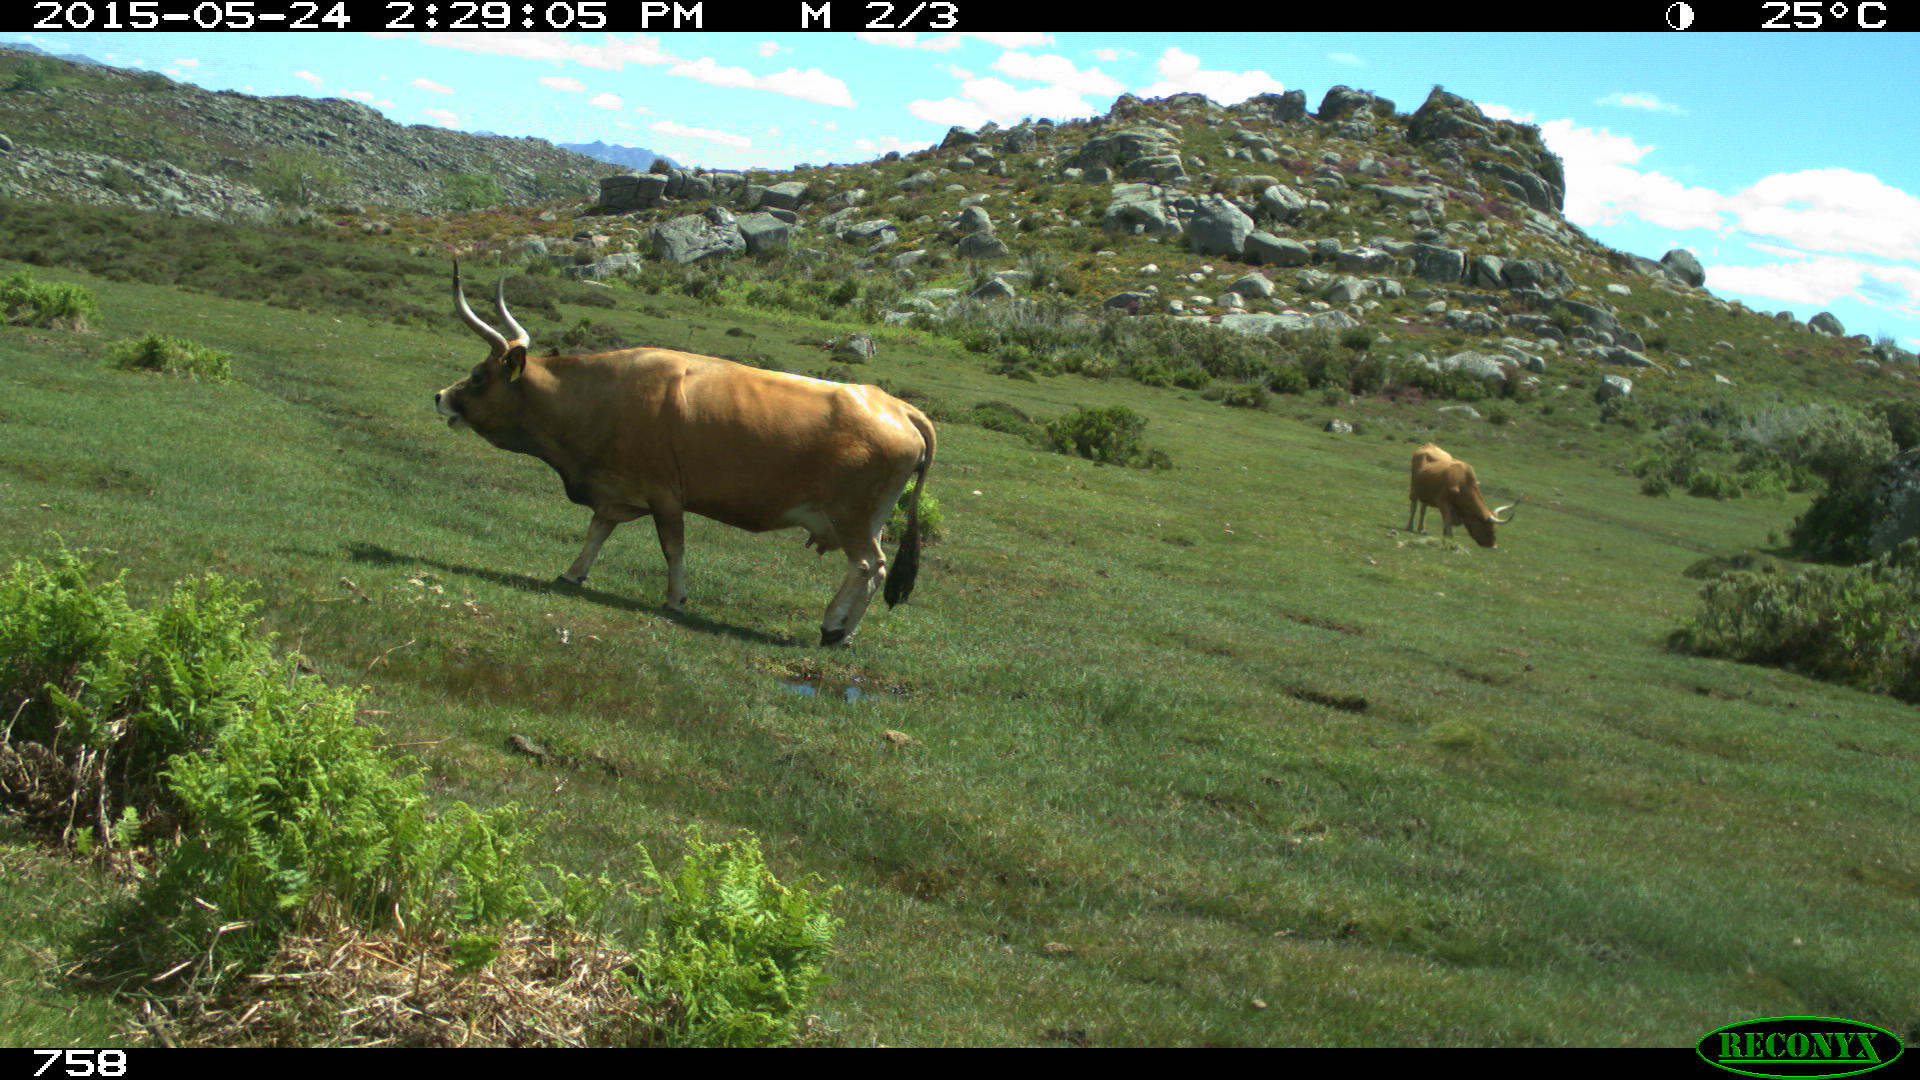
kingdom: Animalia
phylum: Chordata
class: Mammalia
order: Artiodactyla
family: Bovidae
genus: Bos
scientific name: Bos taurus
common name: Domesticated cattle
